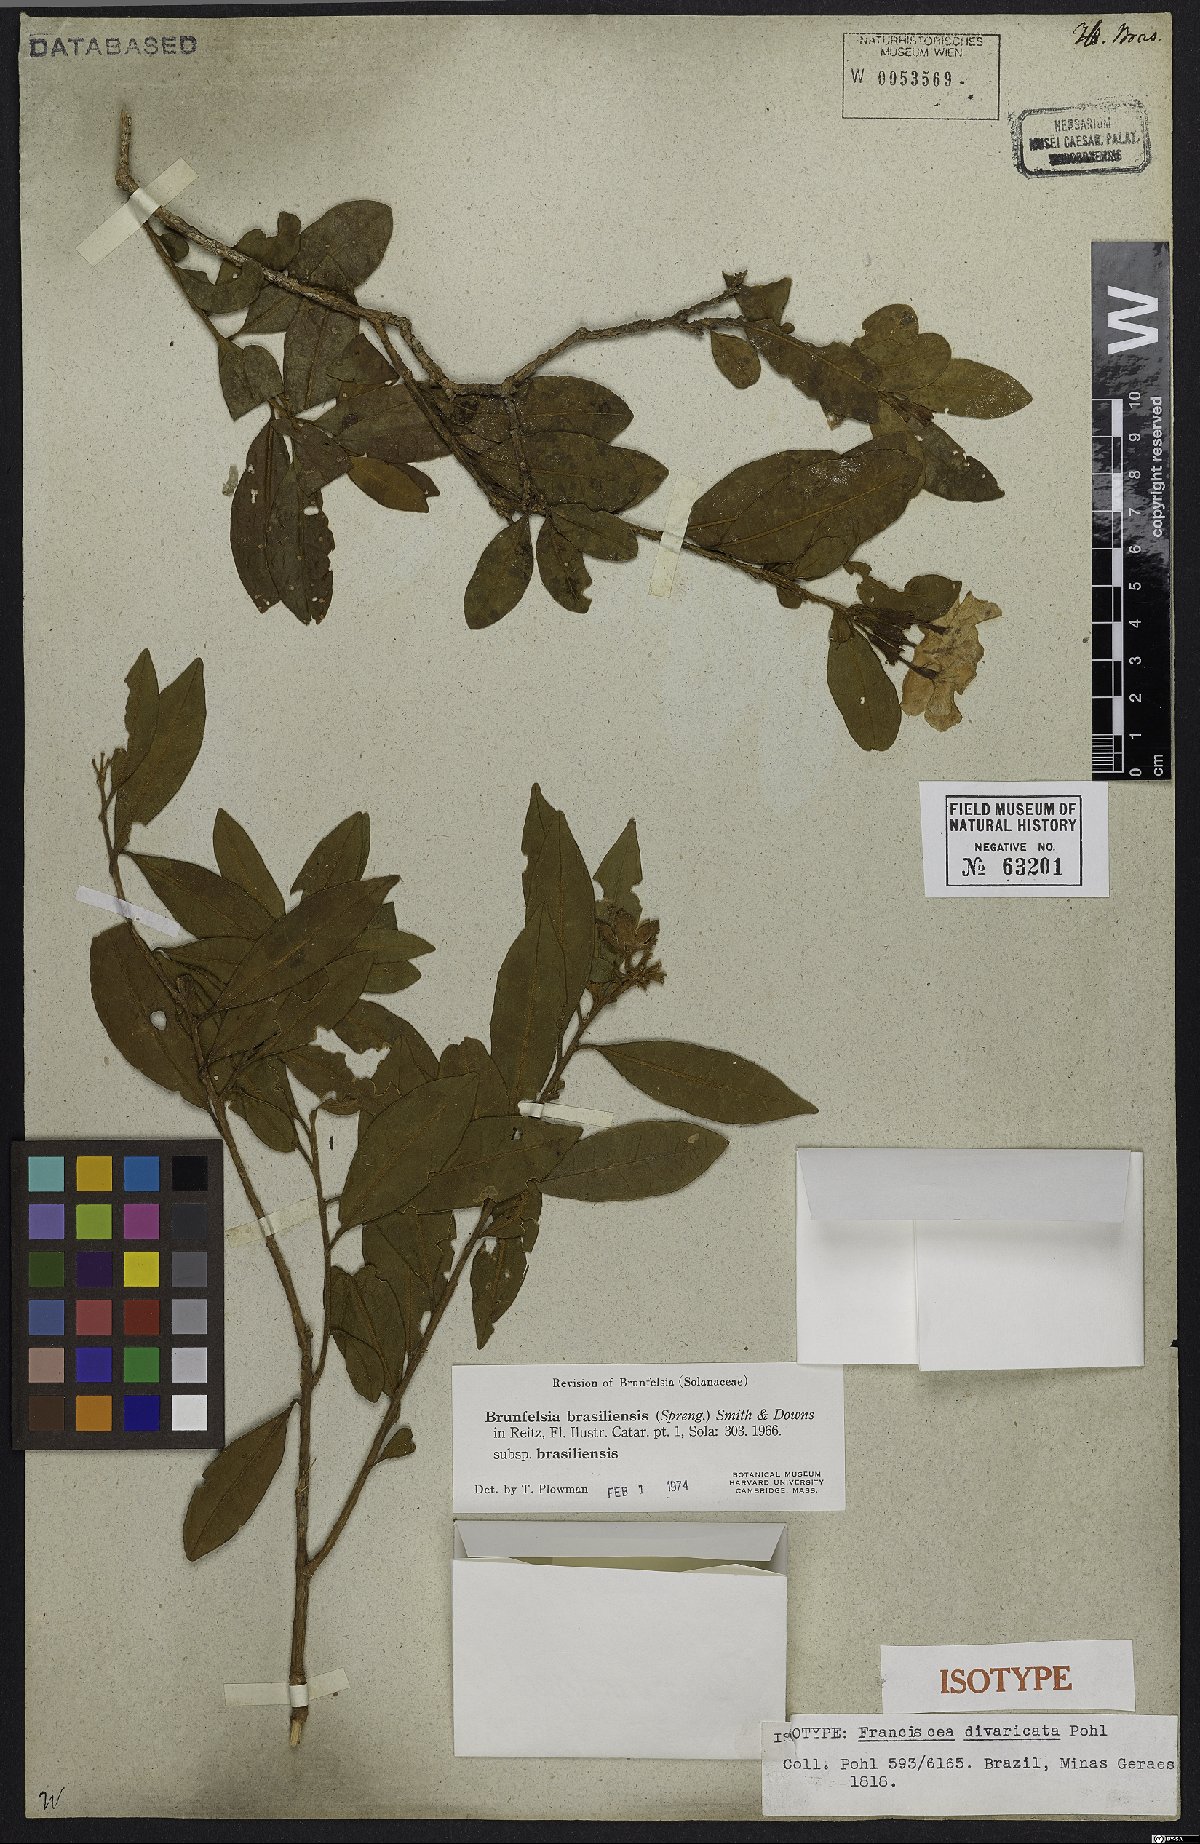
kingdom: Plantae
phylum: Tracheophyta
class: Magnoliopsida
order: Solanales
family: Solanaceae
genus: Brunfelsia
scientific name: Brunfelsia brasiliensis
